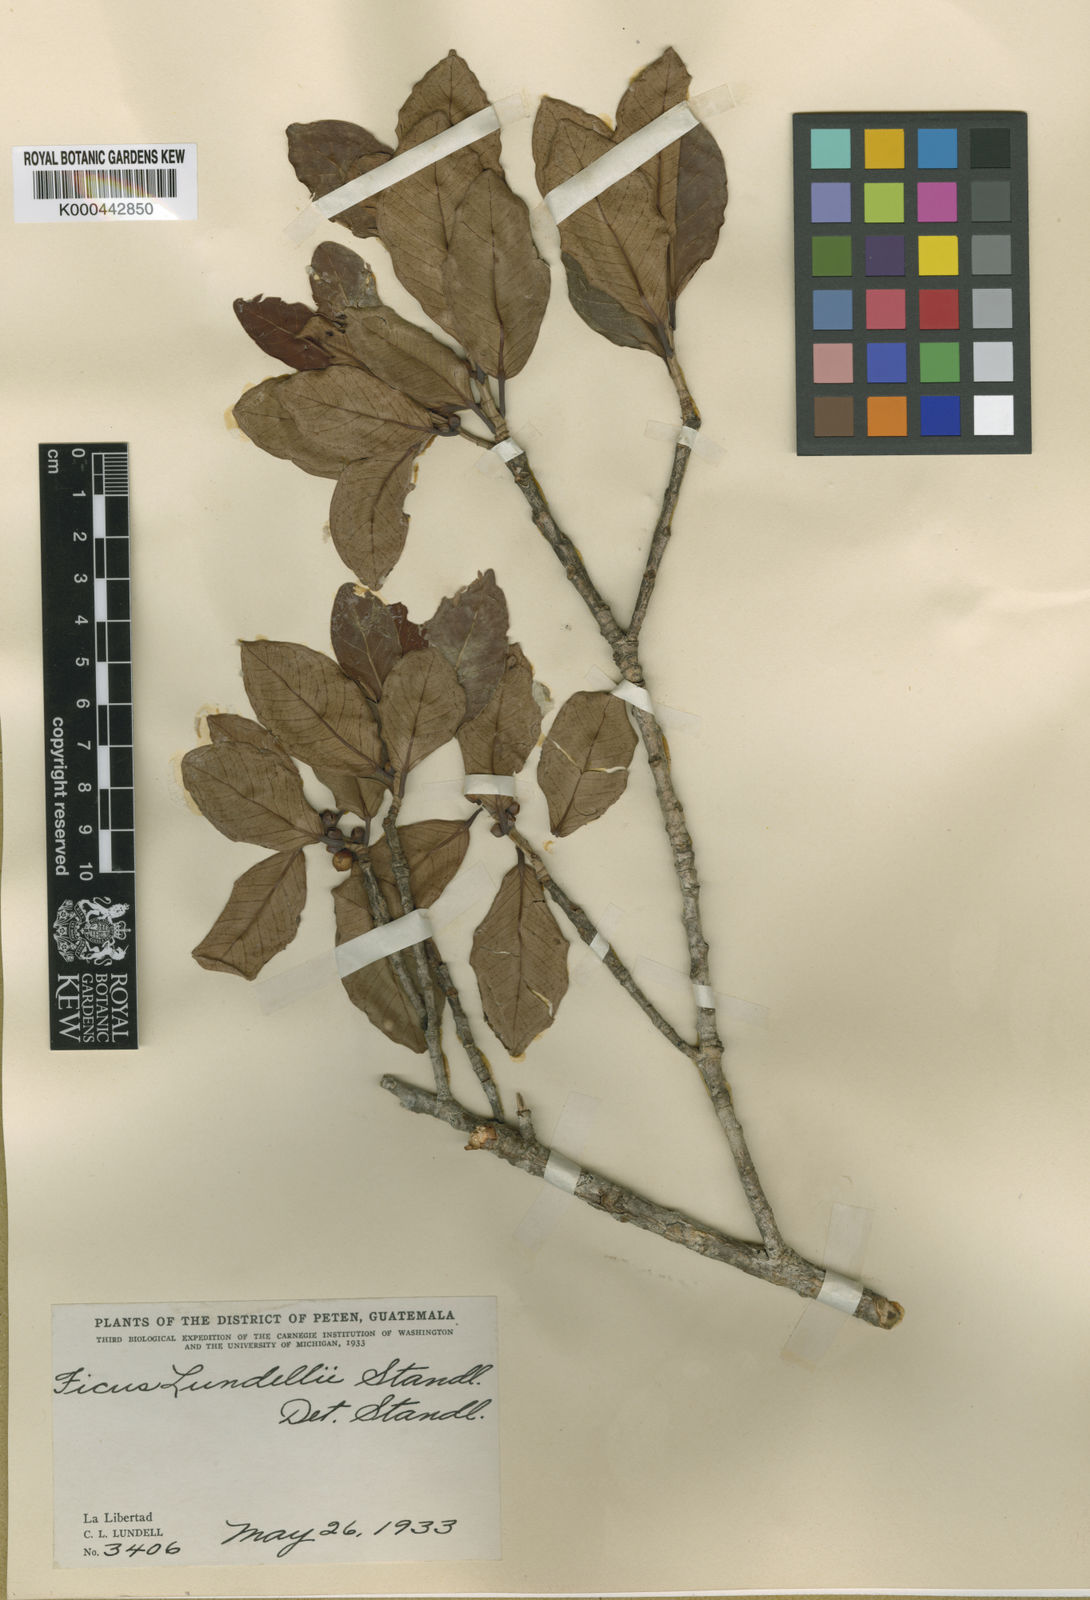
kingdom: Plantae
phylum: Tracheophyta
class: Magnoliopsida
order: Rosales
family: Moraceae
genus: Ficus
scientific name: Ficus aurea
